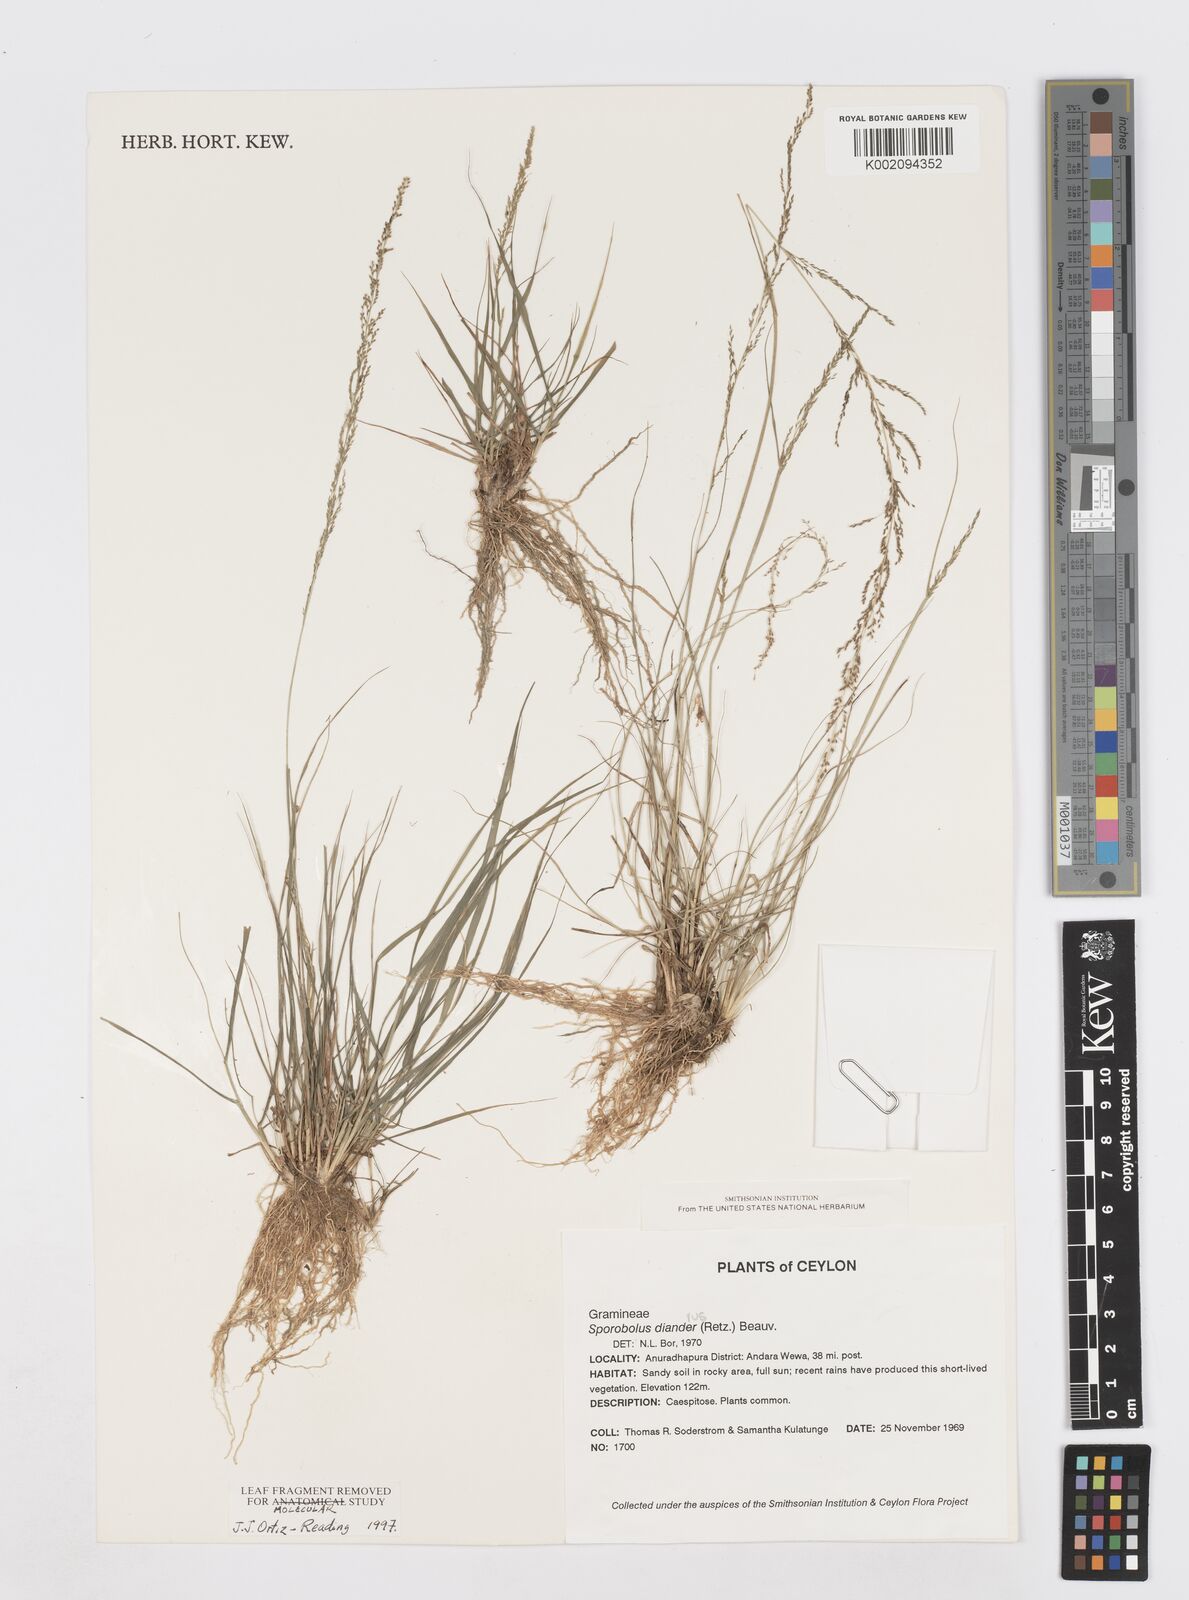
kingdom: Plantae
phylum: Tracheophyta
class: Liliopsida
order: Poales
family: Poaceae
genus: Sporobolus
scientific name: Sporobolus diandrus
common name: Tussock dropseed
